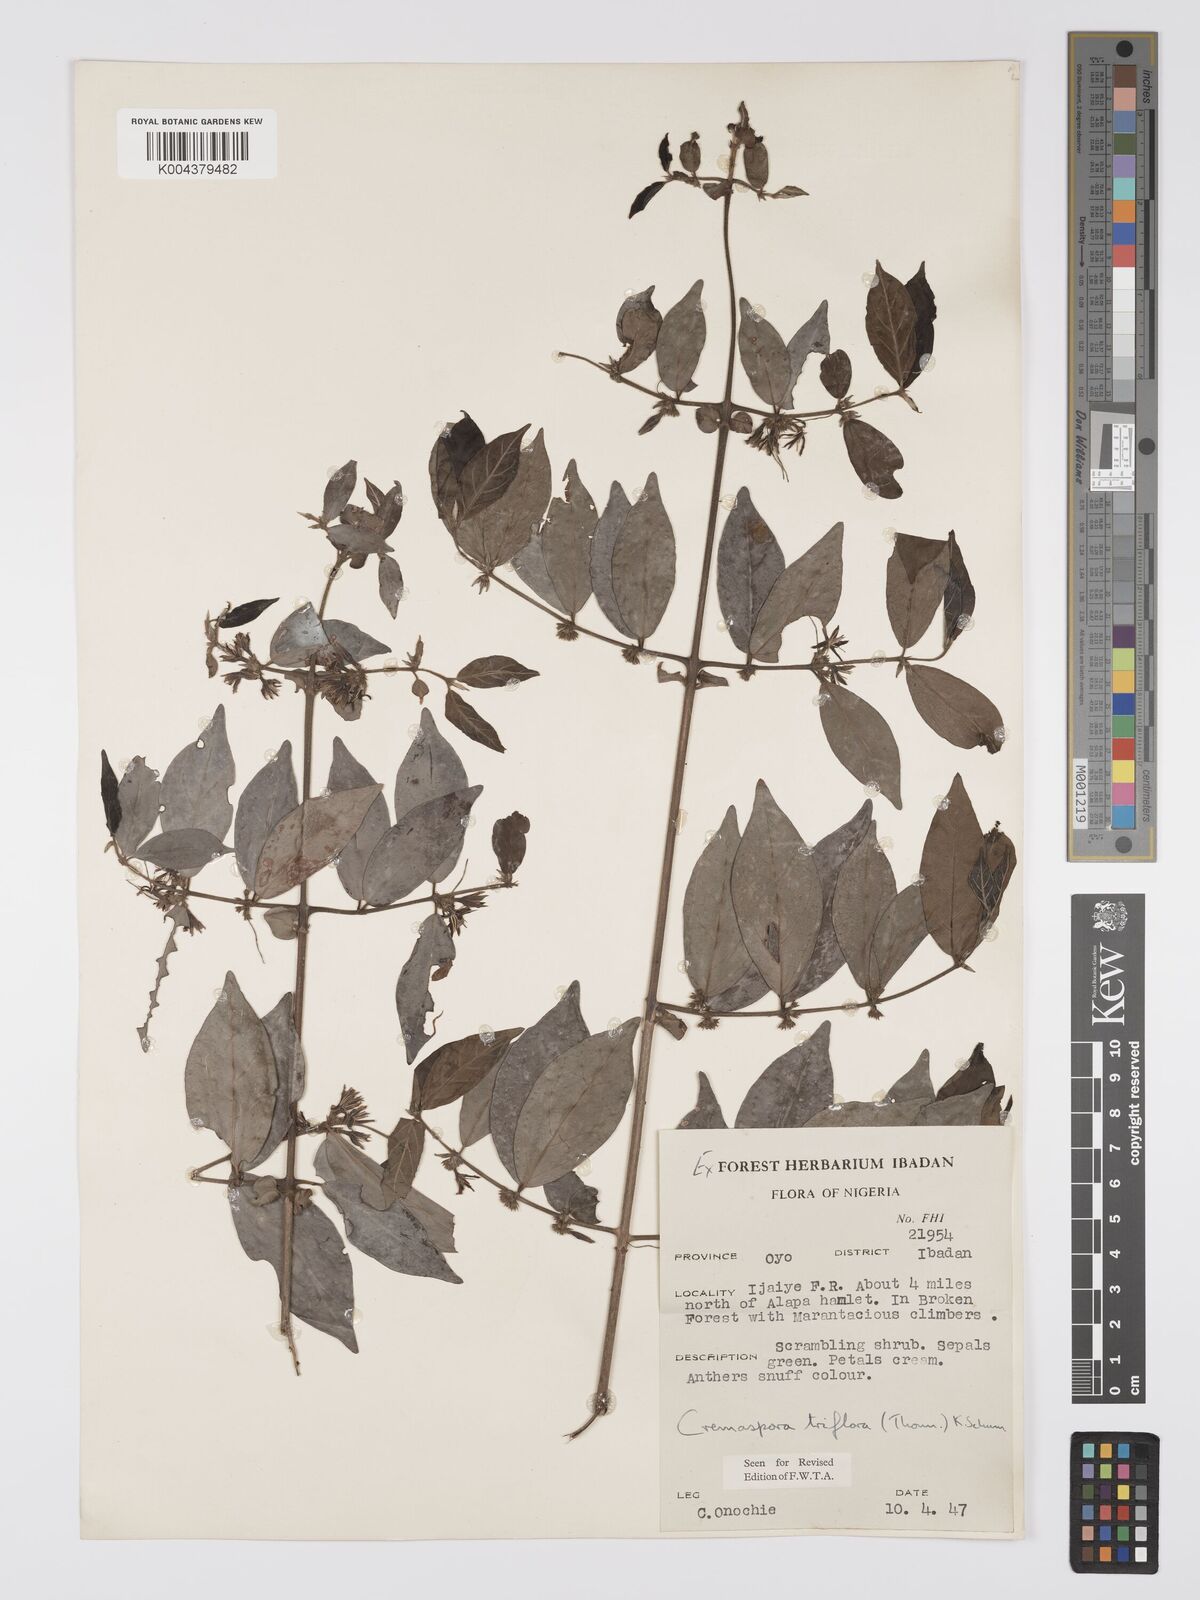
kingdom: Plantae
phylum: Tracheophyta
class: Magnoliopsida
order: Gentianales
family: Rubiaceae
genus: Cremaspora
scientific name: Cremaspora triflora
